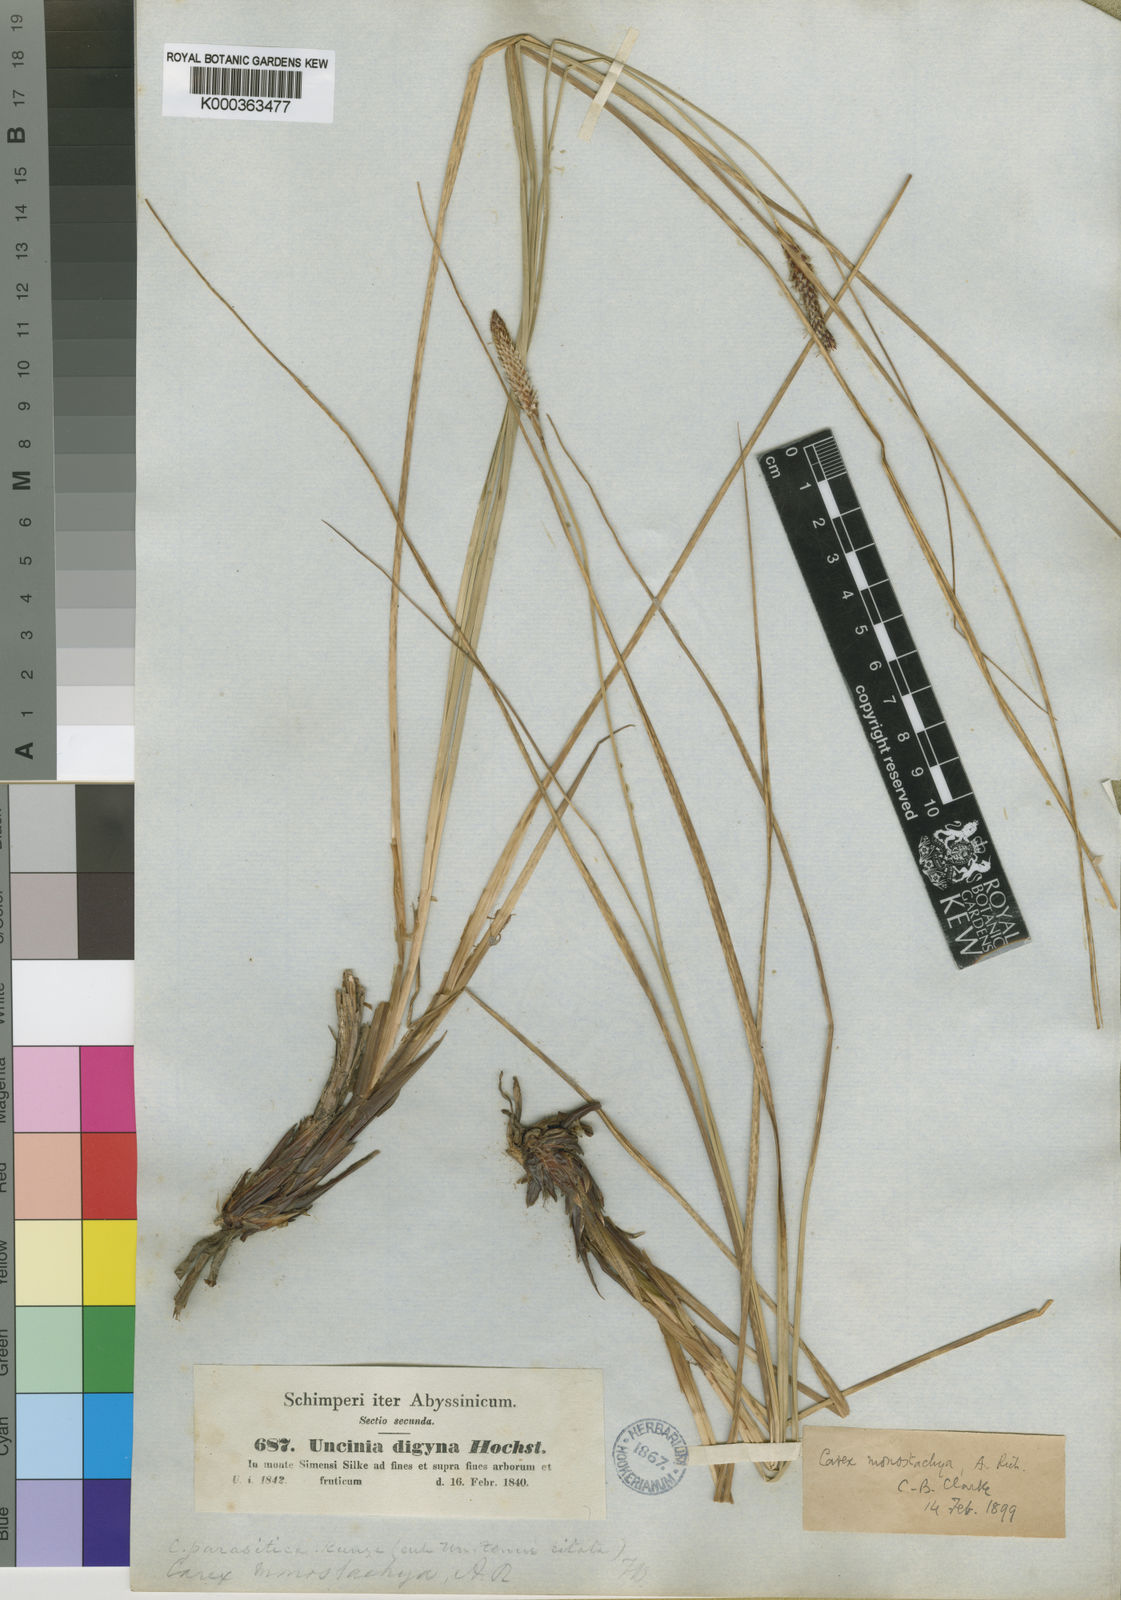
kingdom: Plantae
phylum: Tracheophyta
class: Liliopsida
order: Poales
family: Cyperaceae
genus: Carex
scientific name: Carex monostachya
